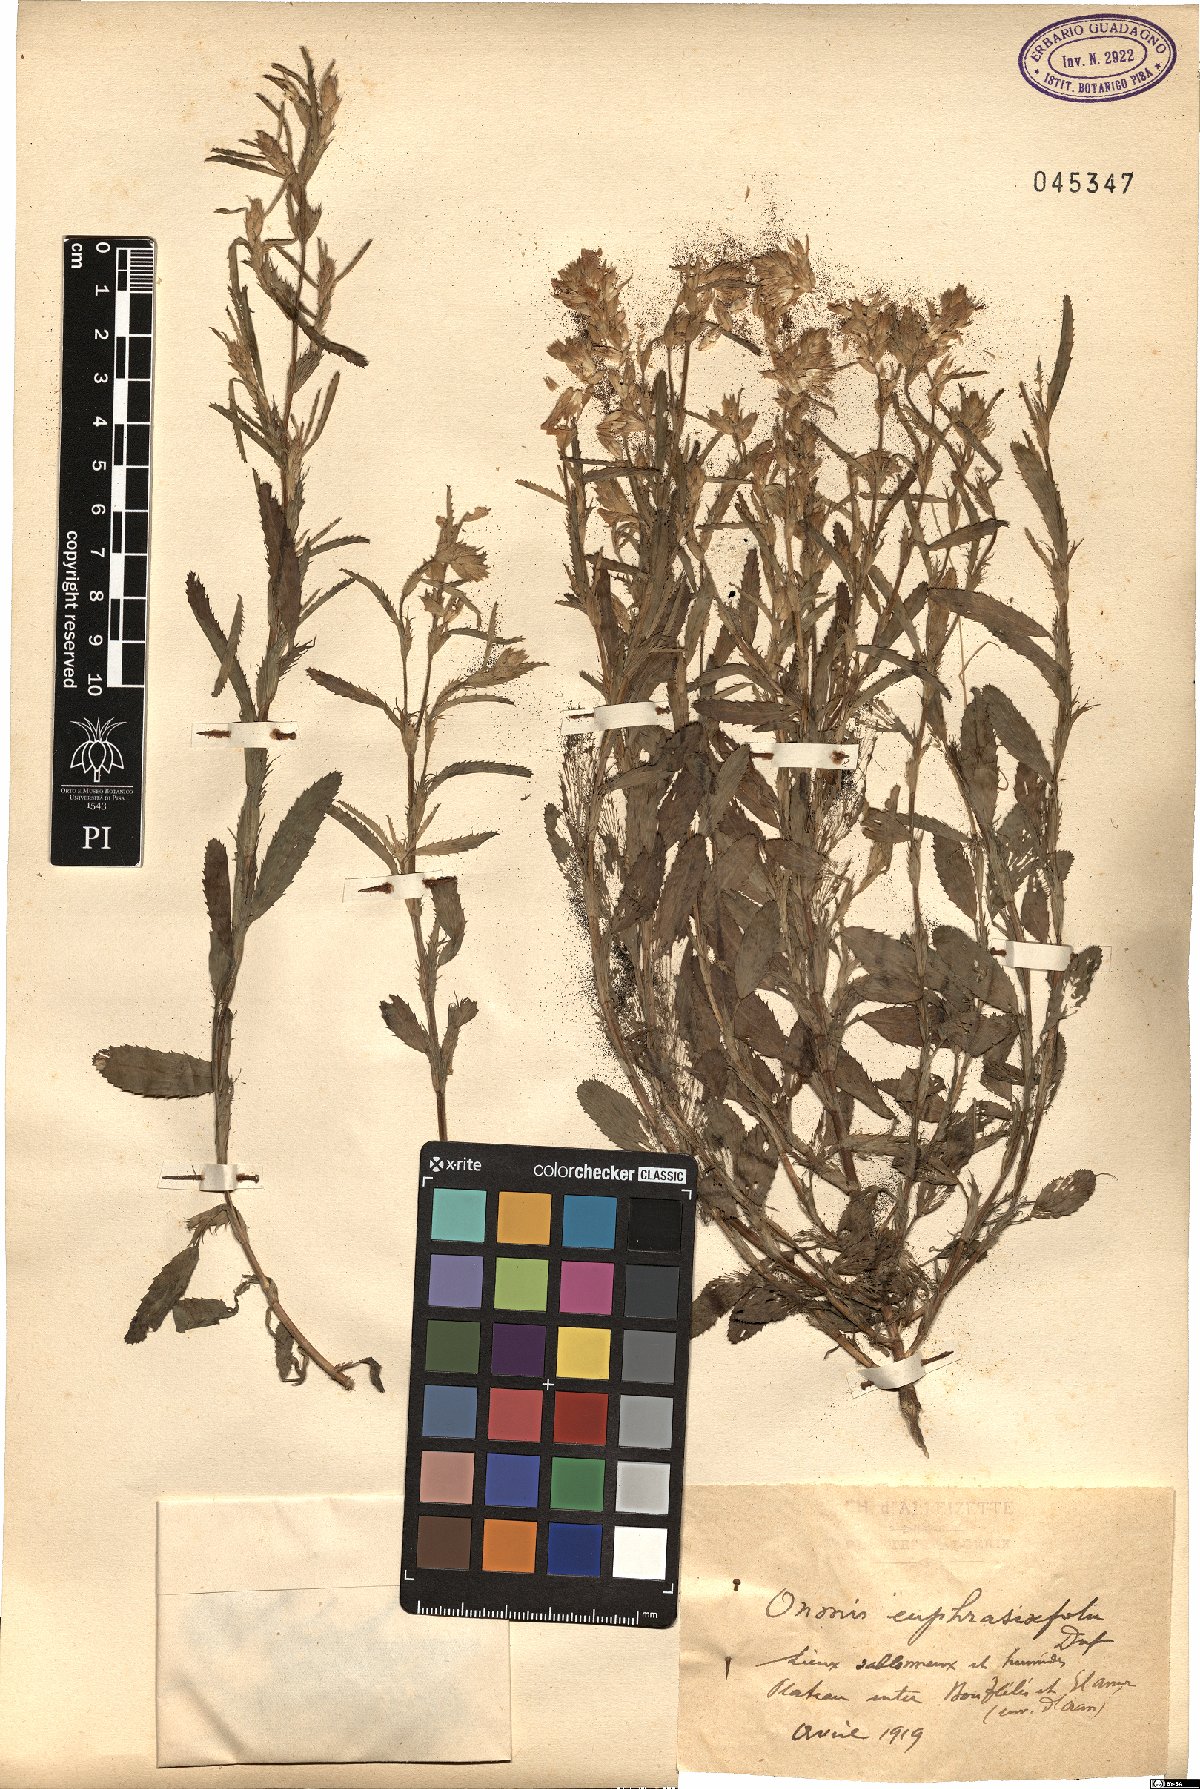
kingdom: Plantae
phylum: Tracheophyta
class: Magnoliopsida
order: Fabales
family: Fabaceae
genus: Ononis
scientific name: Ononis euphrasiifolia
